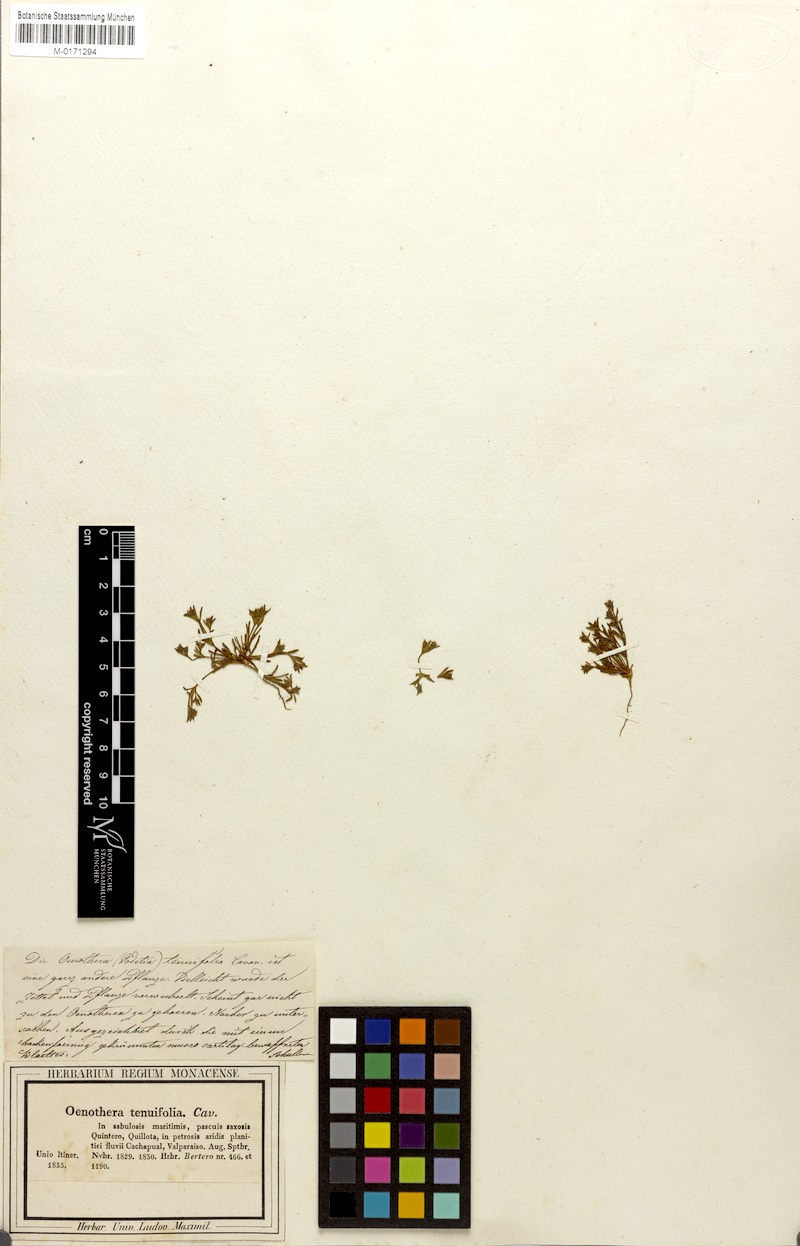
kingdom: Plantae
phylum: Tracheophyta
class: Magnoliopsida
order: Myrtales
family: Onagraceae
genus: Clarkia
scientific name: Clarkia tenella
